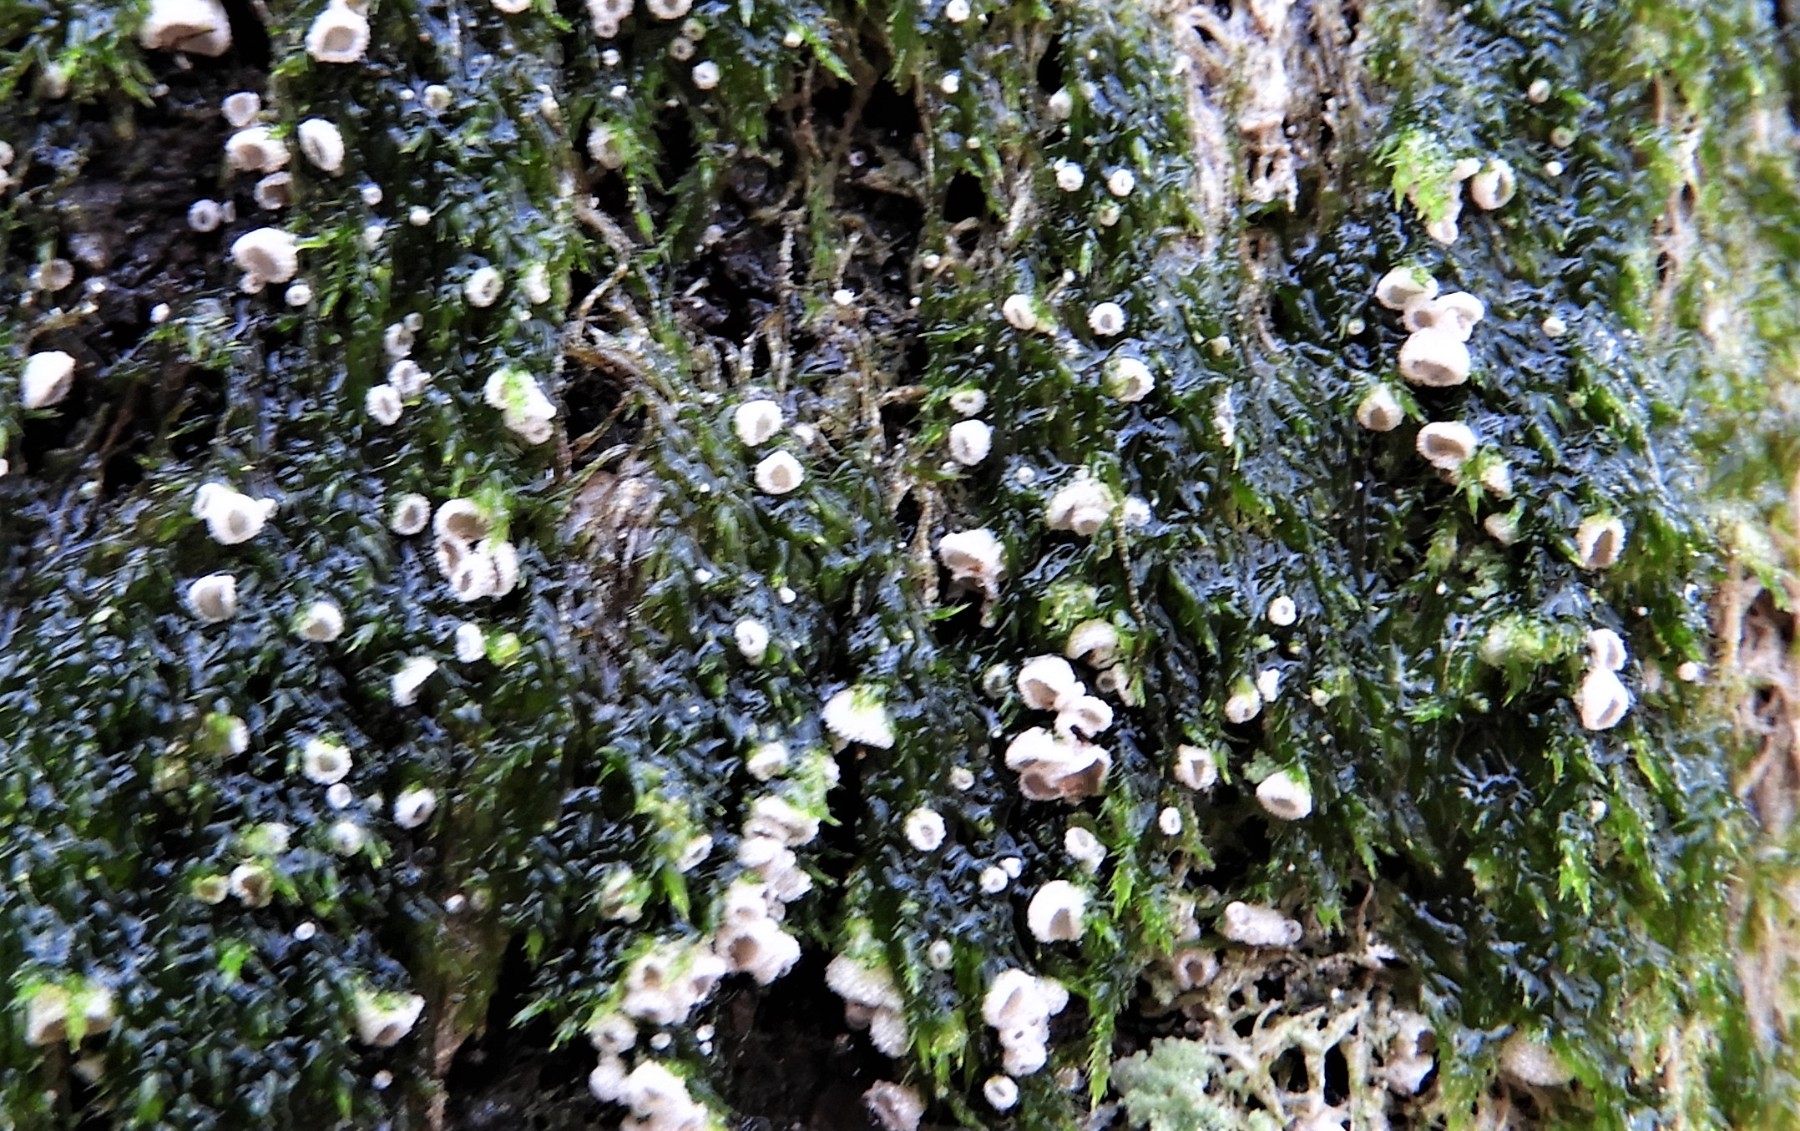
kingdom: Fungi
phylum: Basidiomycota
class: Agaricomycetes
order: Agaricales
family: Chromocyphellaceae
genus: Chromocyphella
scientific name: Chromocyphella muscicola
